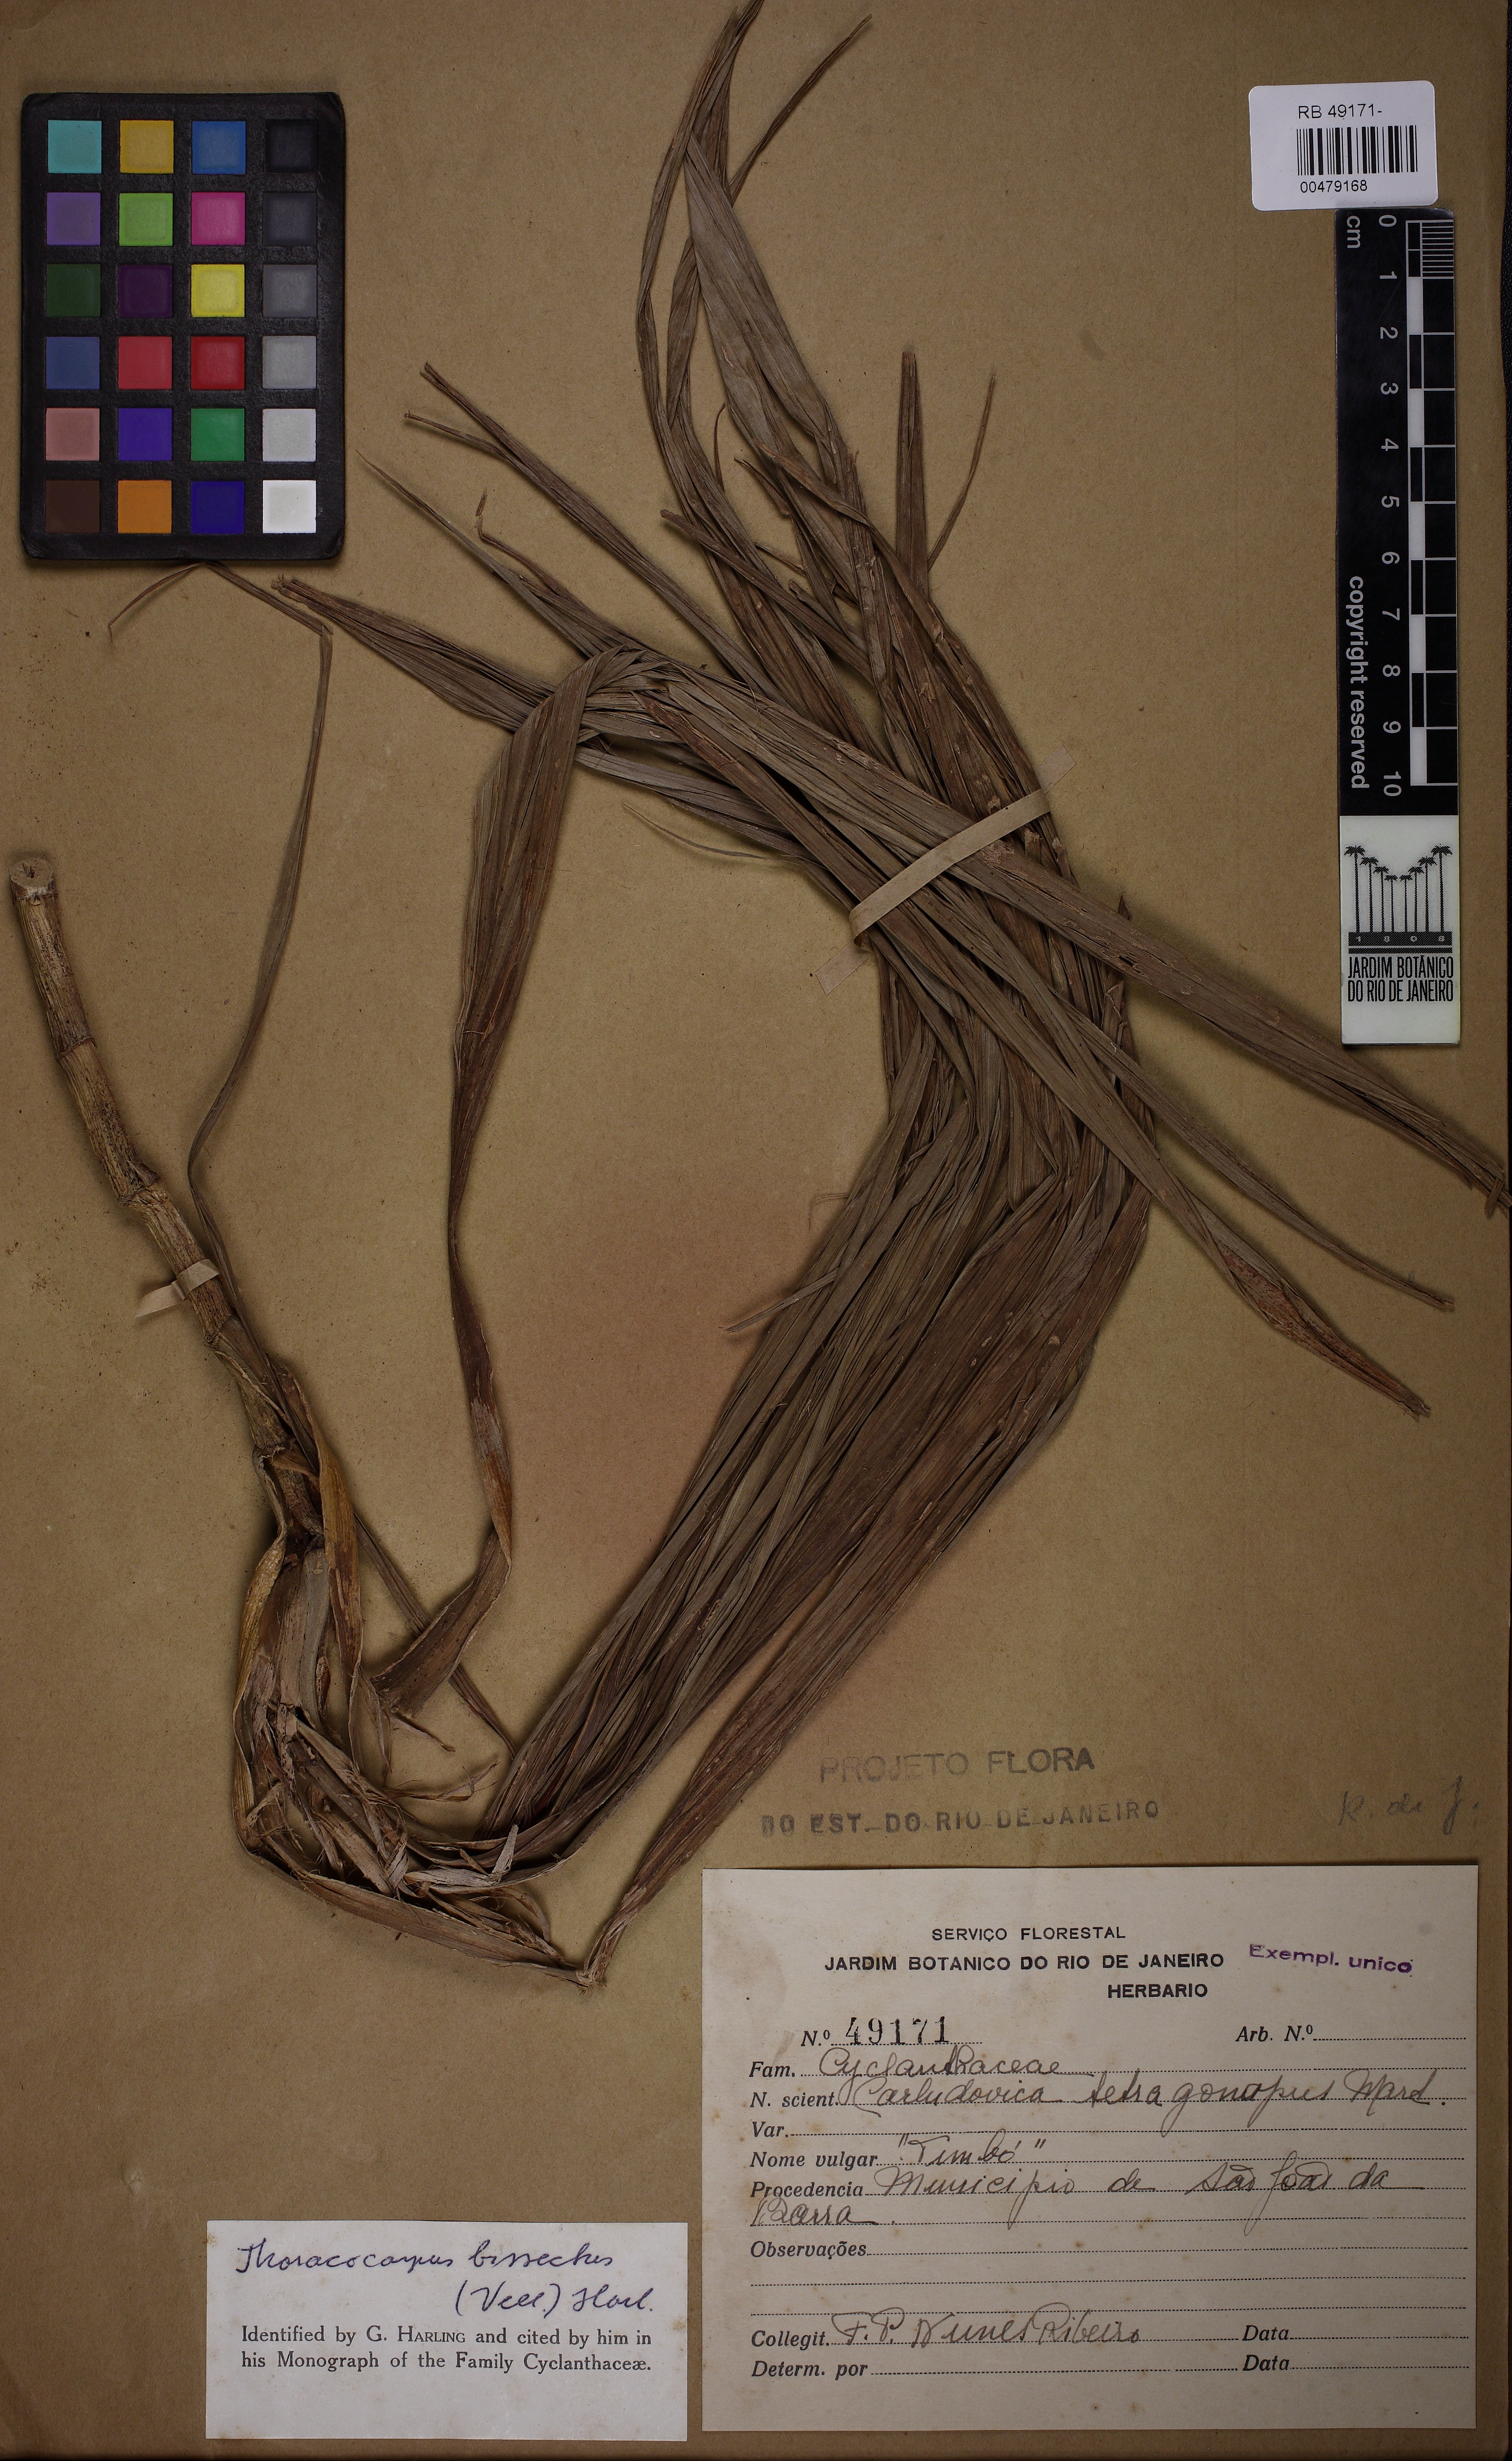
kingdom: Plantae
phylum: Tracheophyta
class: Liliopsida
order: Pandanales
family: Cyclanthaceae
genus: Thoracocarpus
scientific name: Thoracocarpus bissectus
